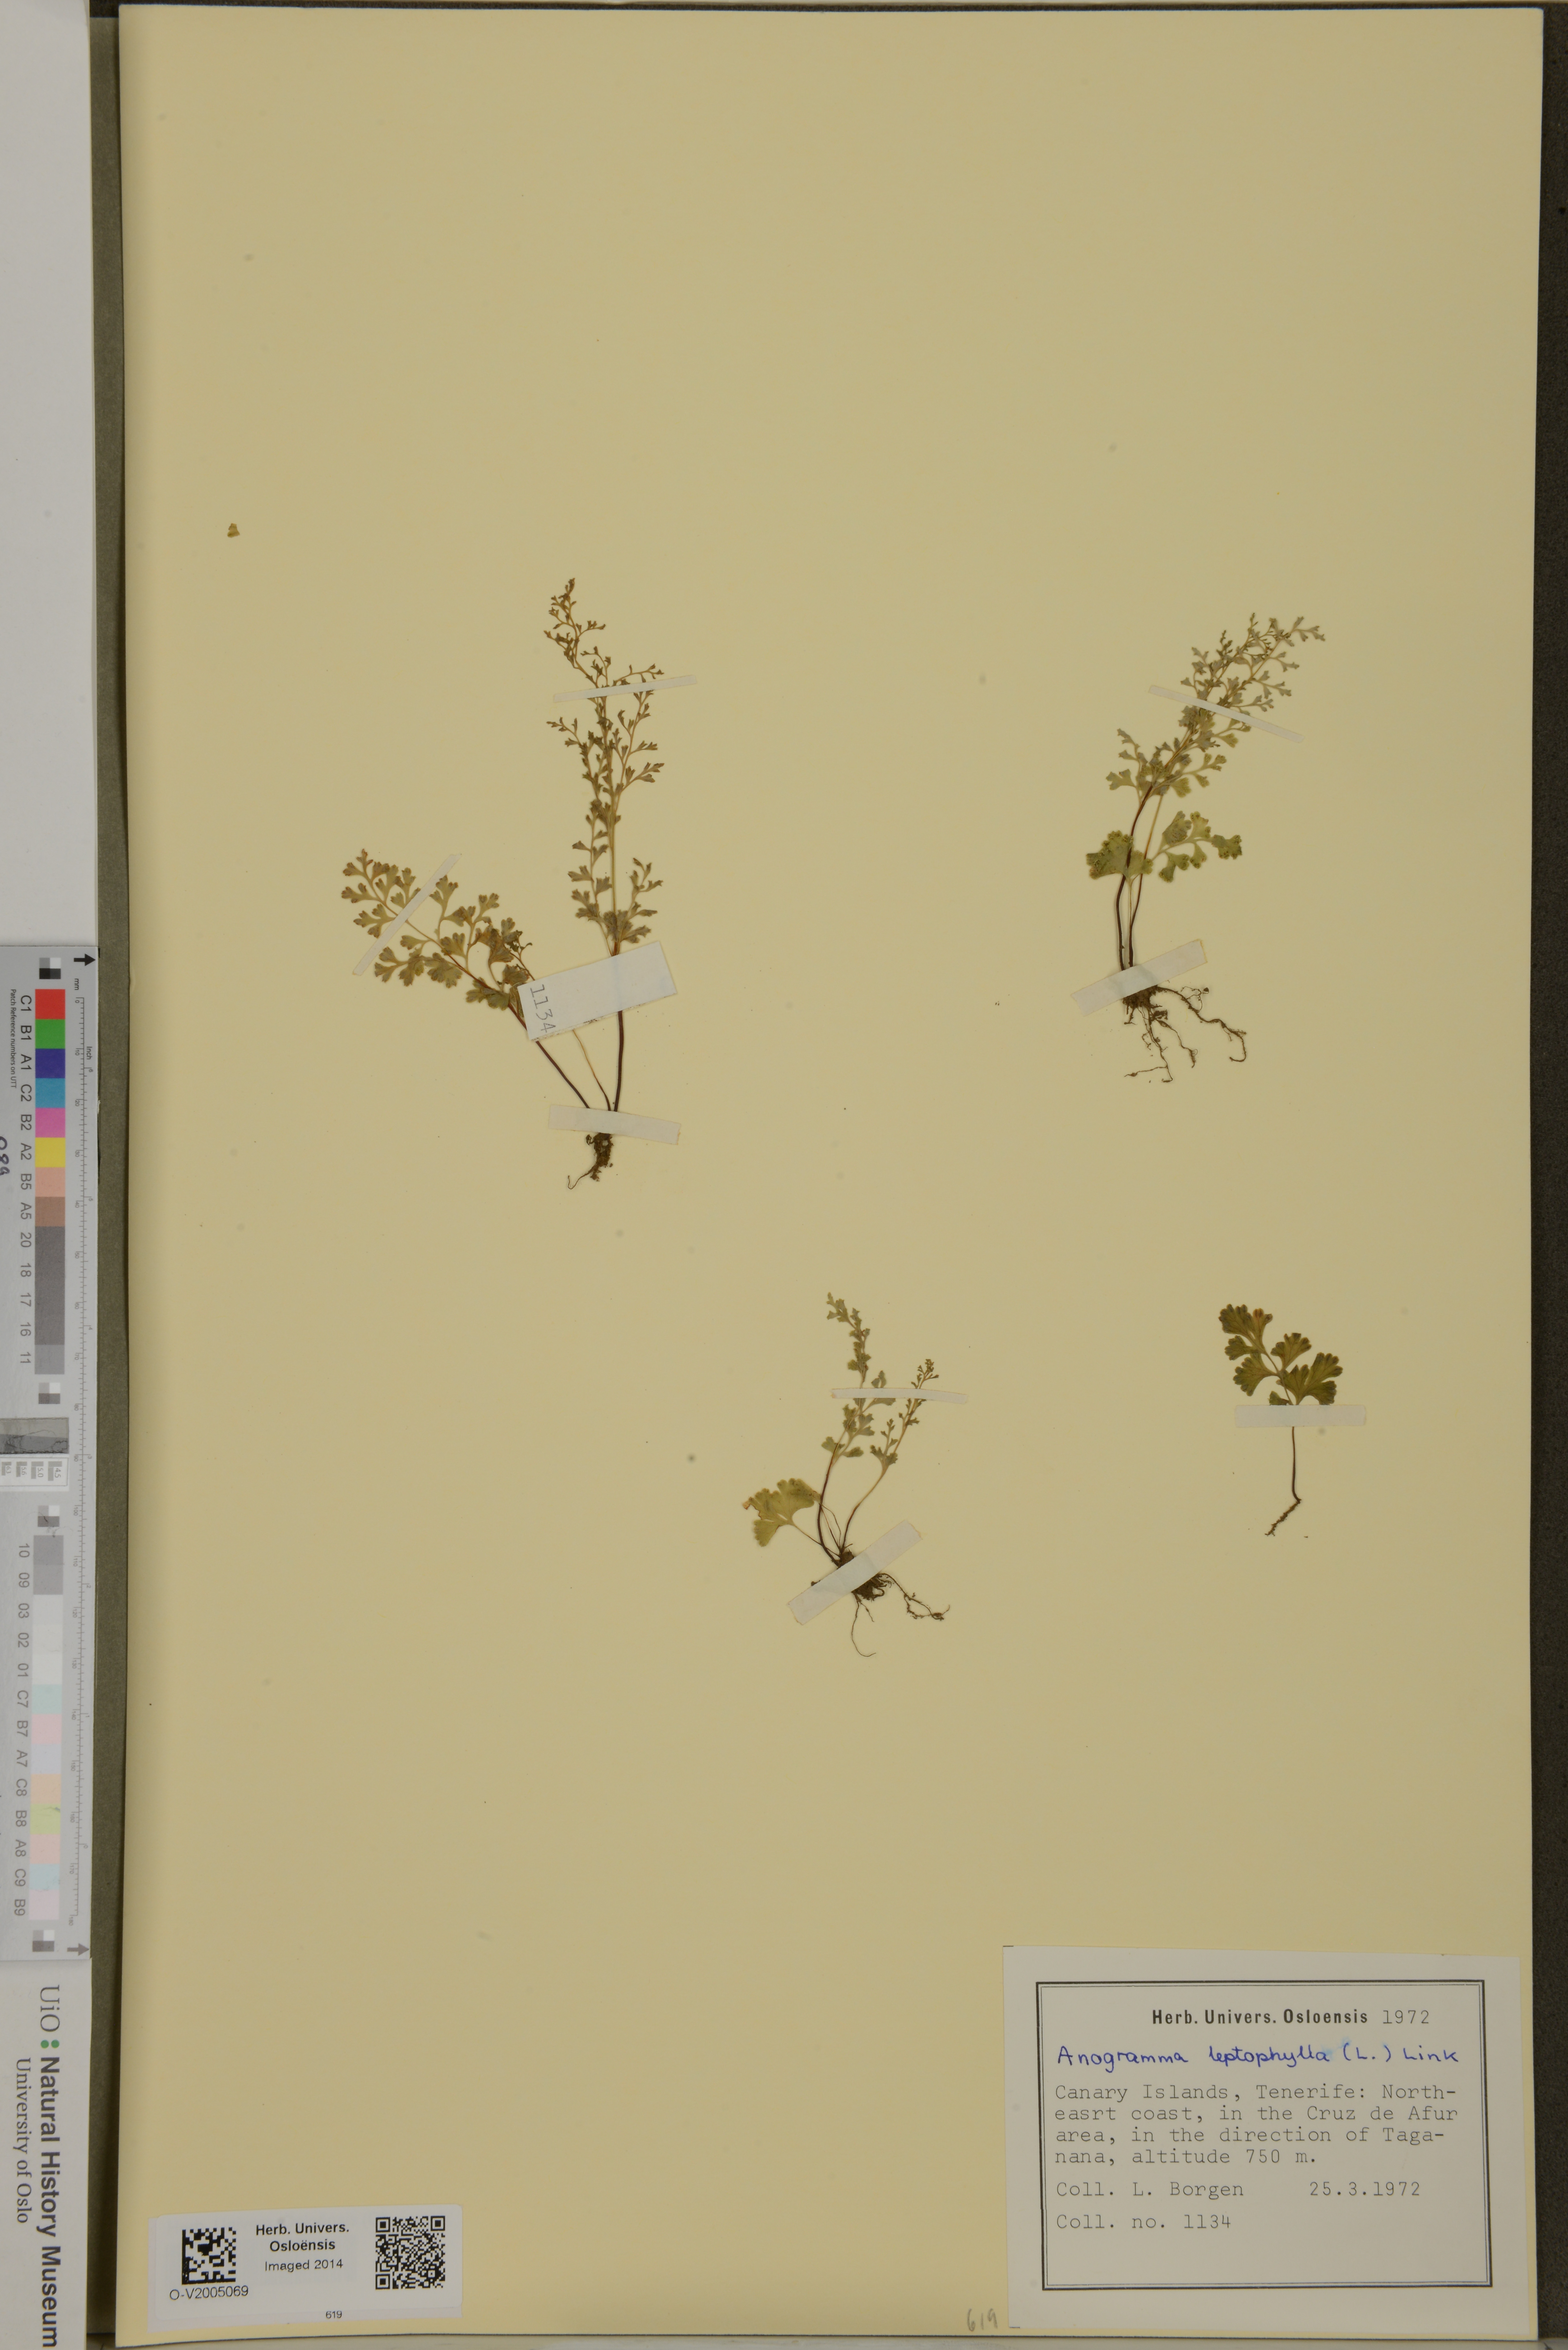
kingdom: Plantae
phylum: Tracheophyta
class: Polypodiopsida
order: Polypodiales
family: Pteridaceae
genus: Anogramma
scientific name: Anogramma leptophylla
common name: Jersey fern
